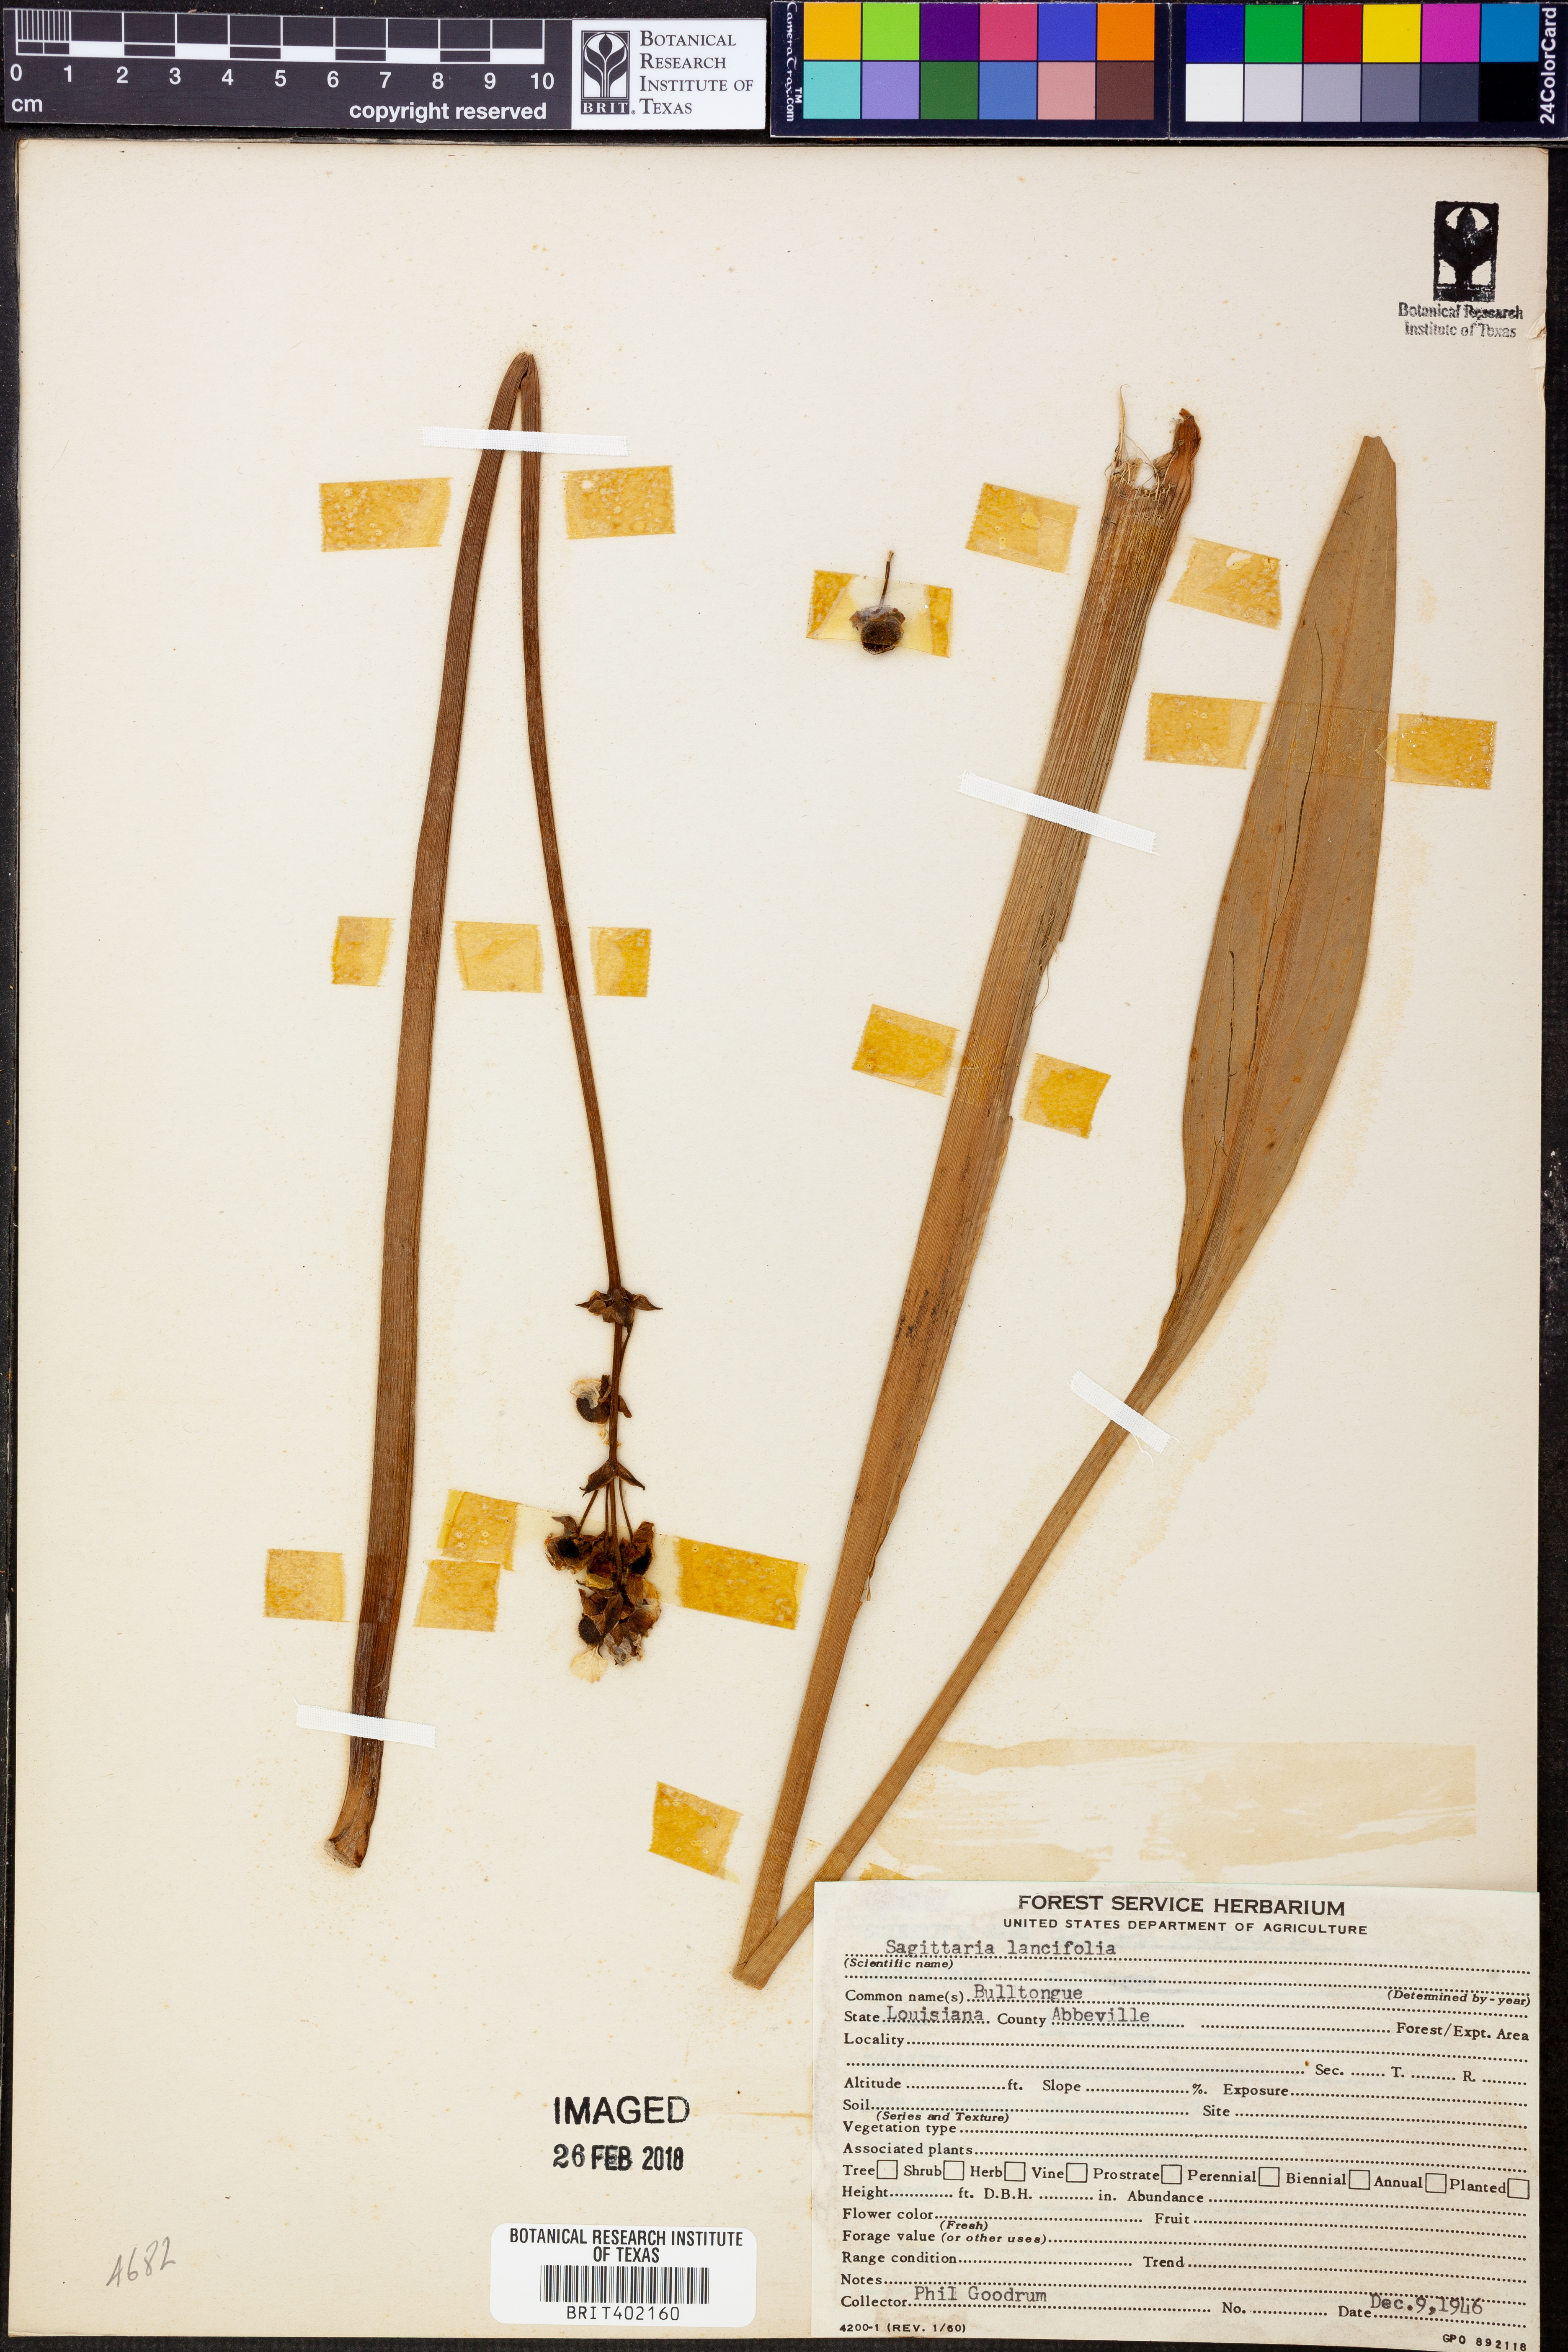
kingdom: Plantae
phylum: Tracheophyta
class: Liliopsida
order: Alismatales
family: Alismataceae
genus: Sagittaria
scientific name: Sagittaria lancifolia
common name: Lance-leaf arrowhead
